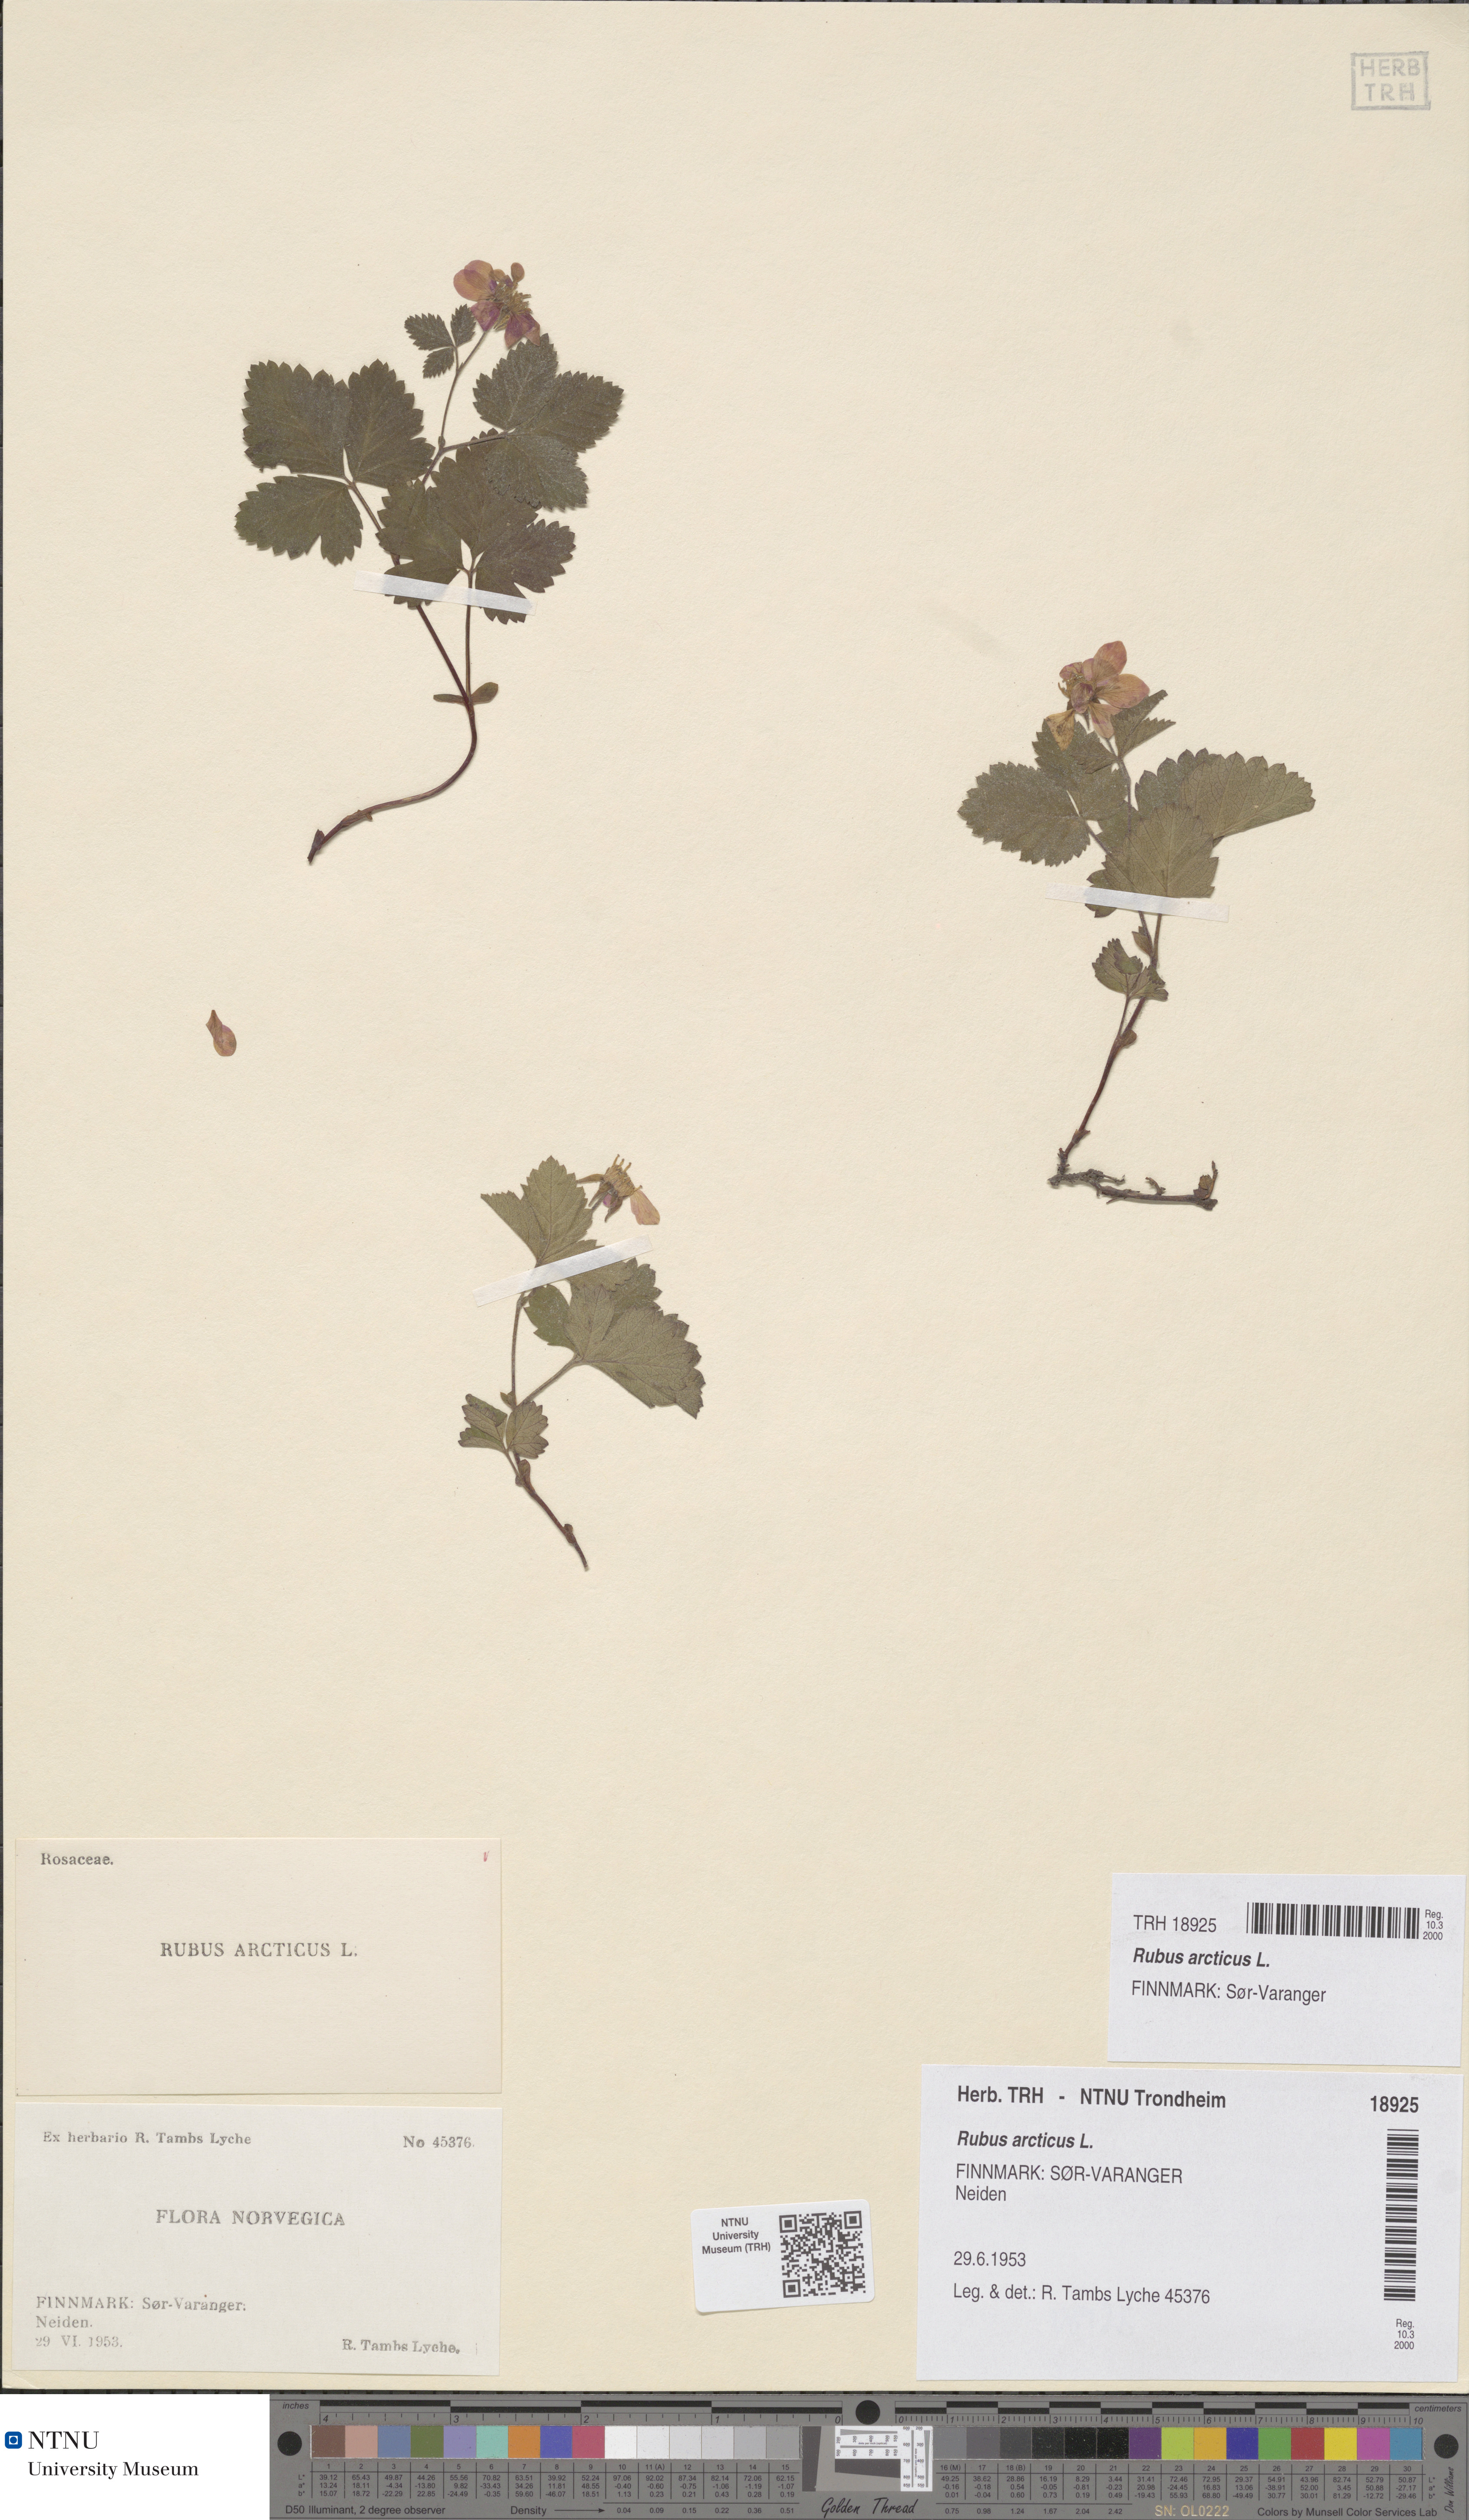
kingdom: Plantae
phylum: Tracheophyta
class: Magnoliopsida
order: Rosales
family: Rosaceae
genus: Rubus
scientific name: Rubus arcticus
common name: Arctic bramble
